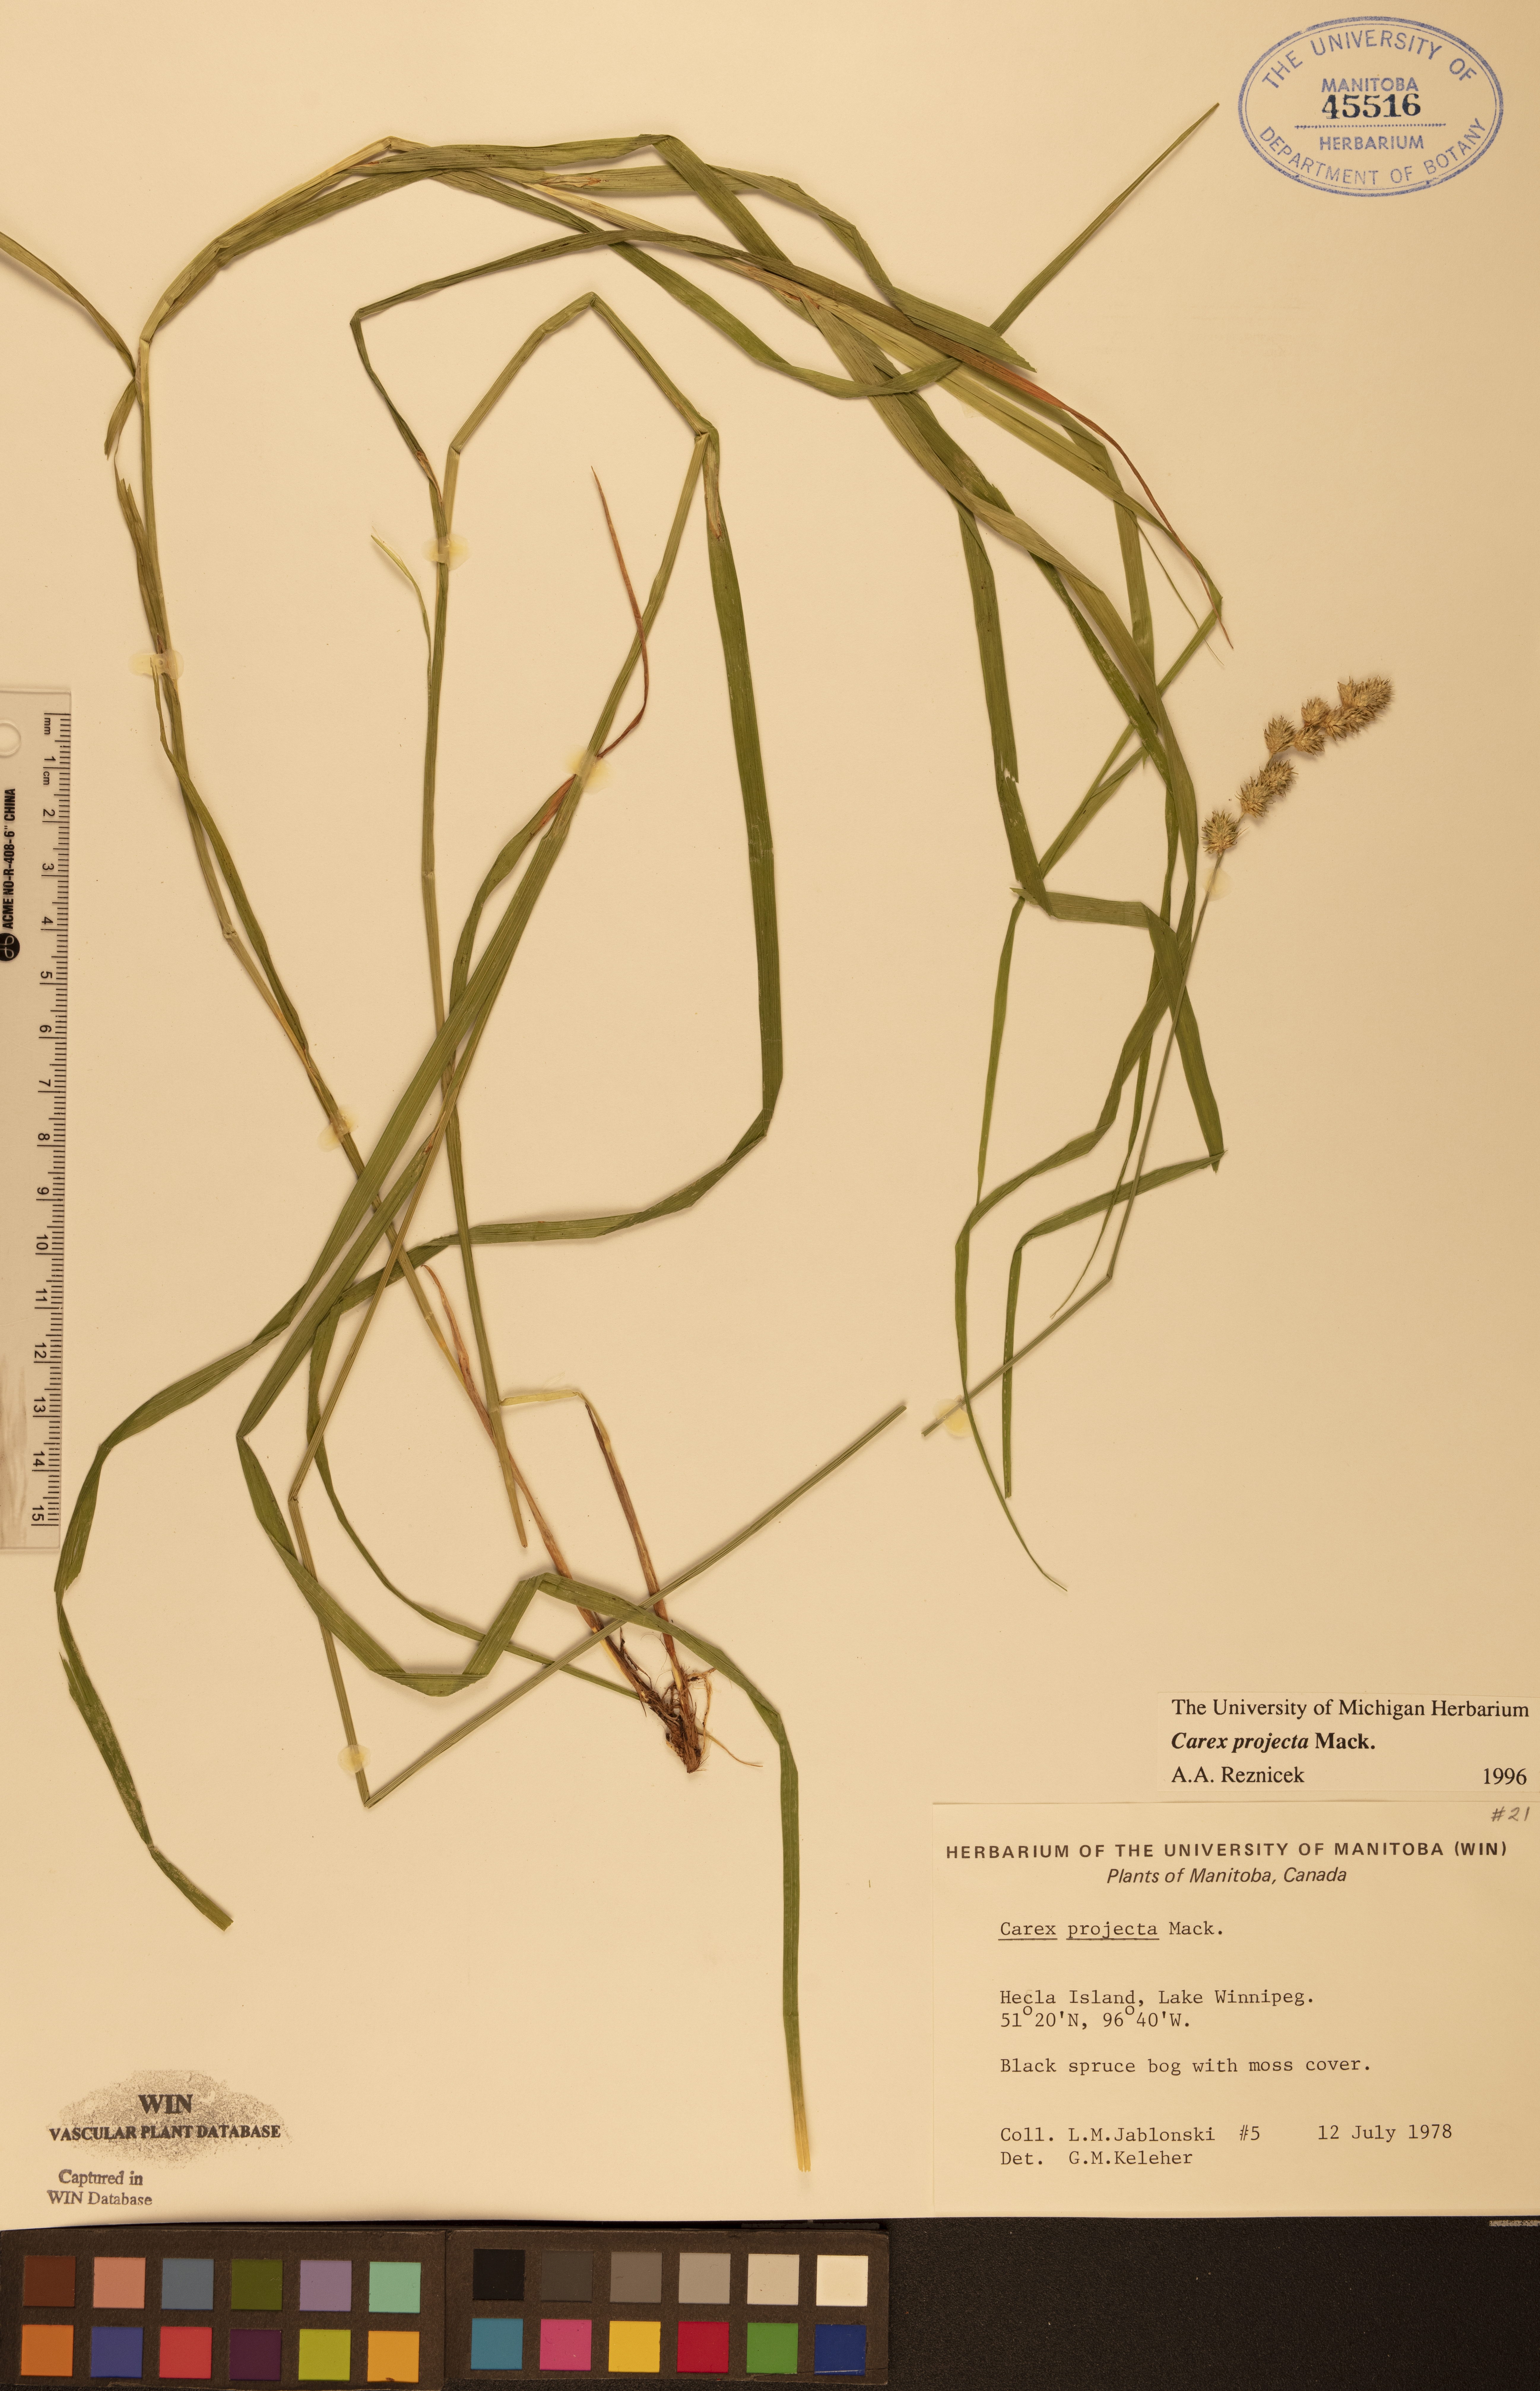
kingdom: Plantae
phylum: Tracheophyta
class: Liliopsida
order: Poales
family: Cyperaceae
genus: Carex
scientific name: Carex projecta
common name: Loose-headed oval sedge
